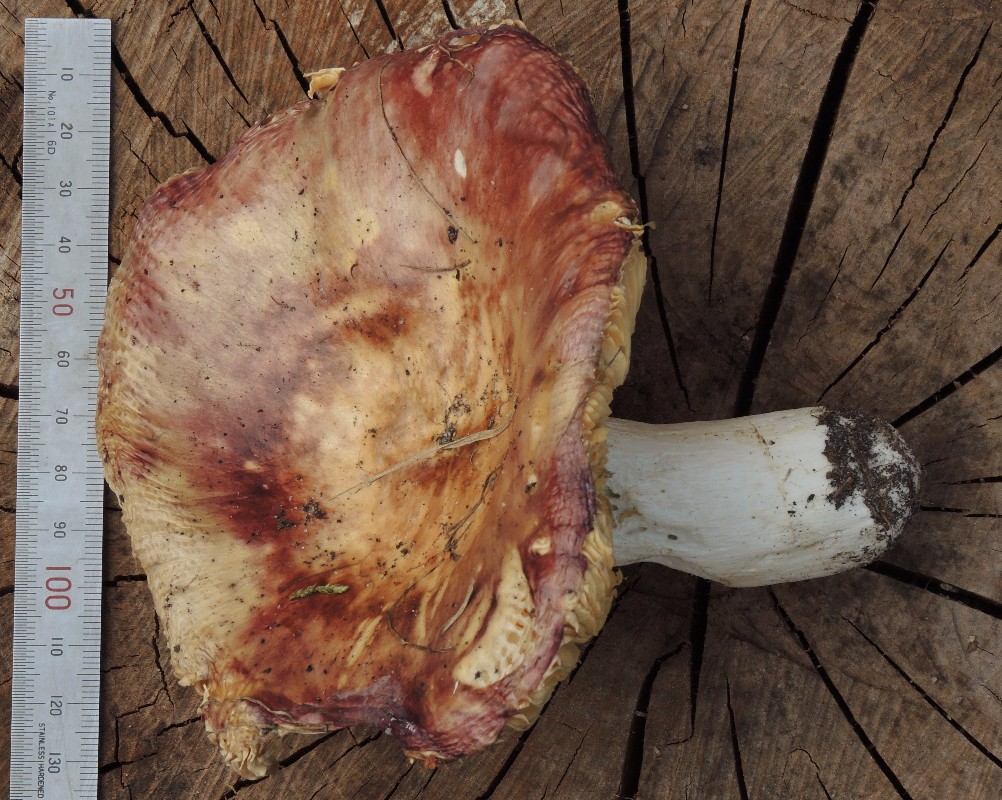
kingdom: Fungi
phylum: Basidiomycota
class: Agaricomycetes
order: Russulales
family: Russulaceae
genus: Russula
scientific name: Russula integra
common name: mandel-skørhat
